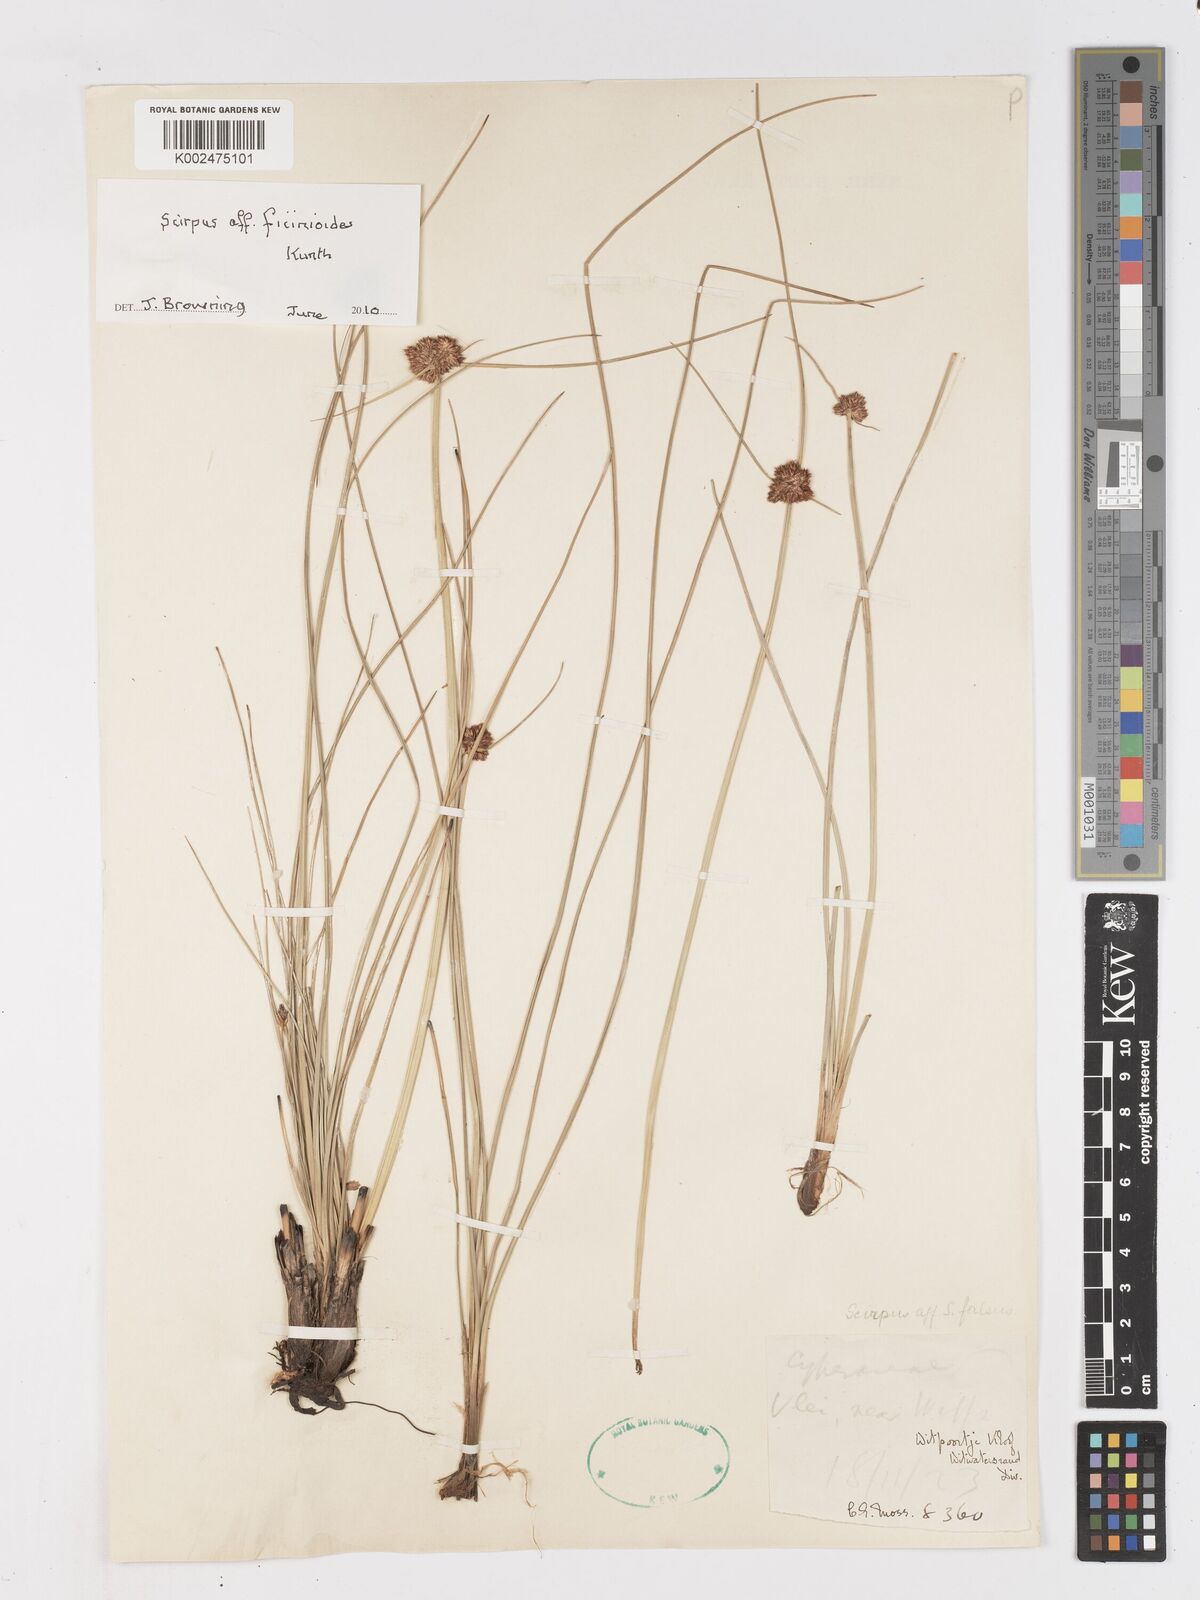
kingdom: Plantae
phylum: Tracheophyta
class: Liliopsida
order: Poales
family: Cyperaceae
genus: Ficinia
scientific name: Ficinia
